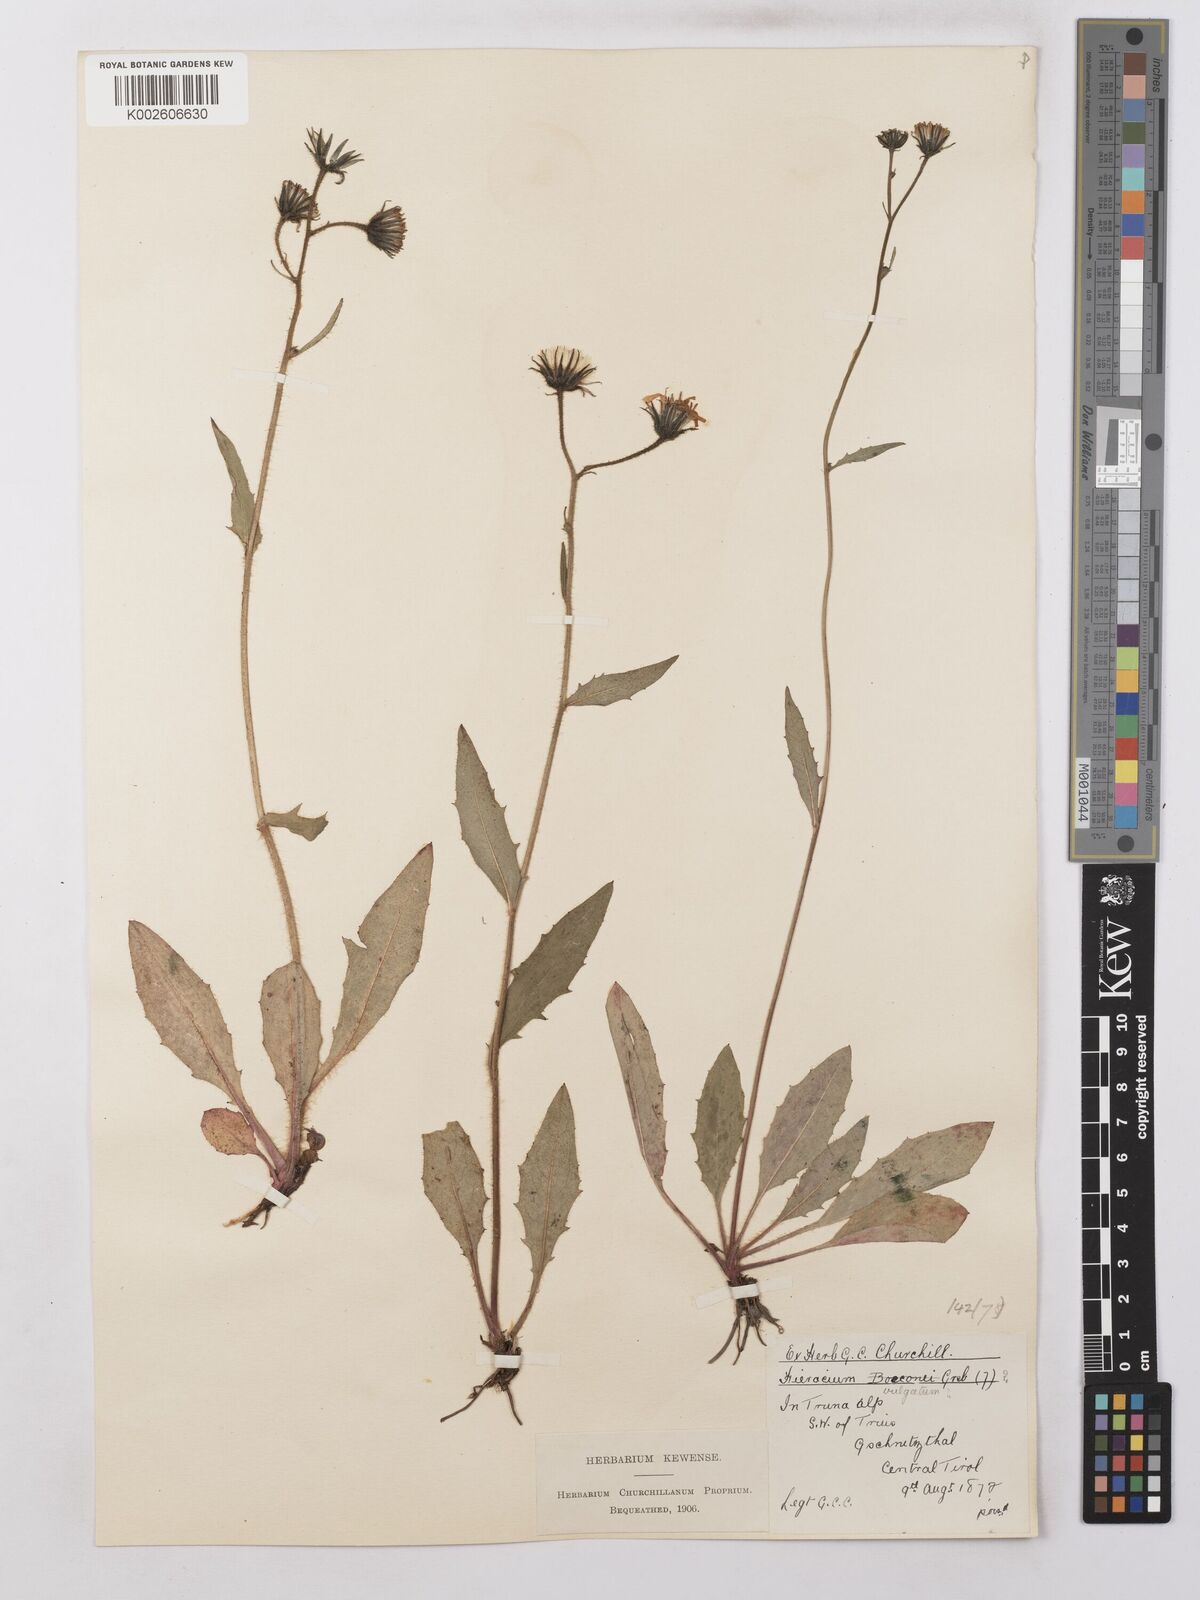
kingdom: Plantae
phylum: Tracheophyta
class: Magnoliopsida
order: Asterales
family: Asteraceae
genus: Hieracium
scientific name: Hieracium lachenalii
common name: Common hawkweed
